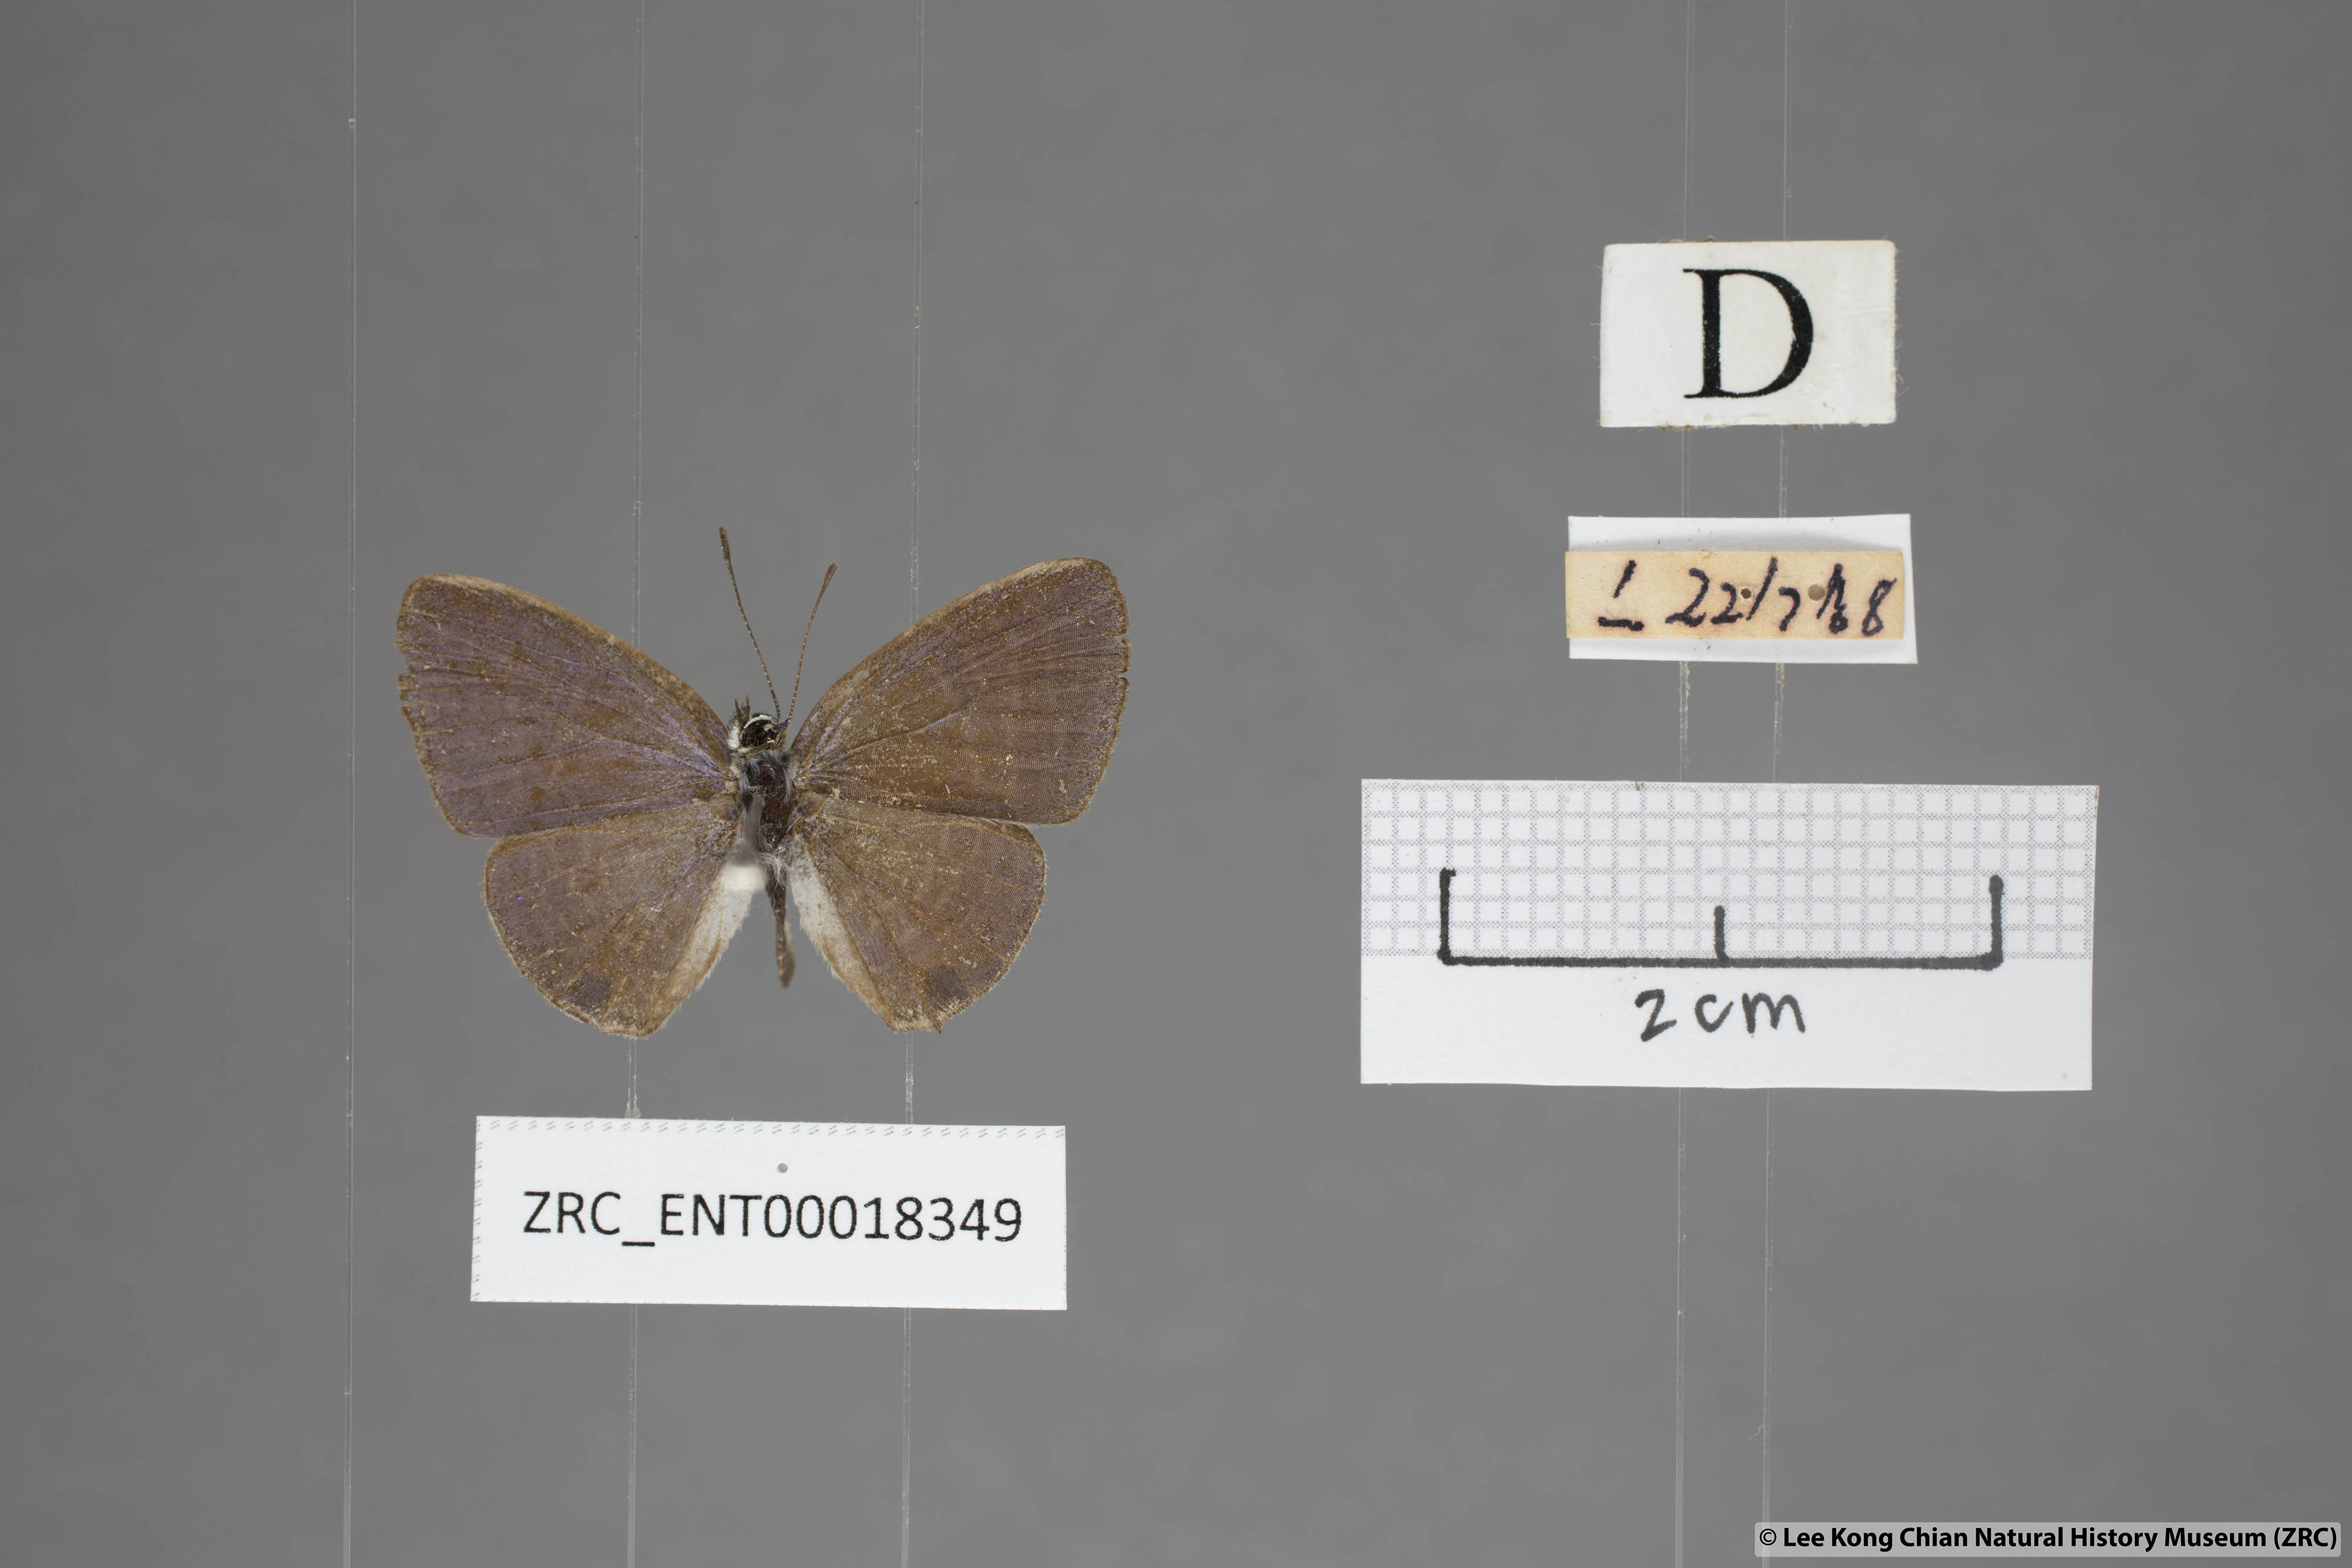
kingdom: Animalia
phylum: Arthropoda
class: Insecta
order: Lepidoptera
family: Lycaenidae
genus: Nacaduba
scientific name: Nacaduba hermus
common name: Pale four-line blue
